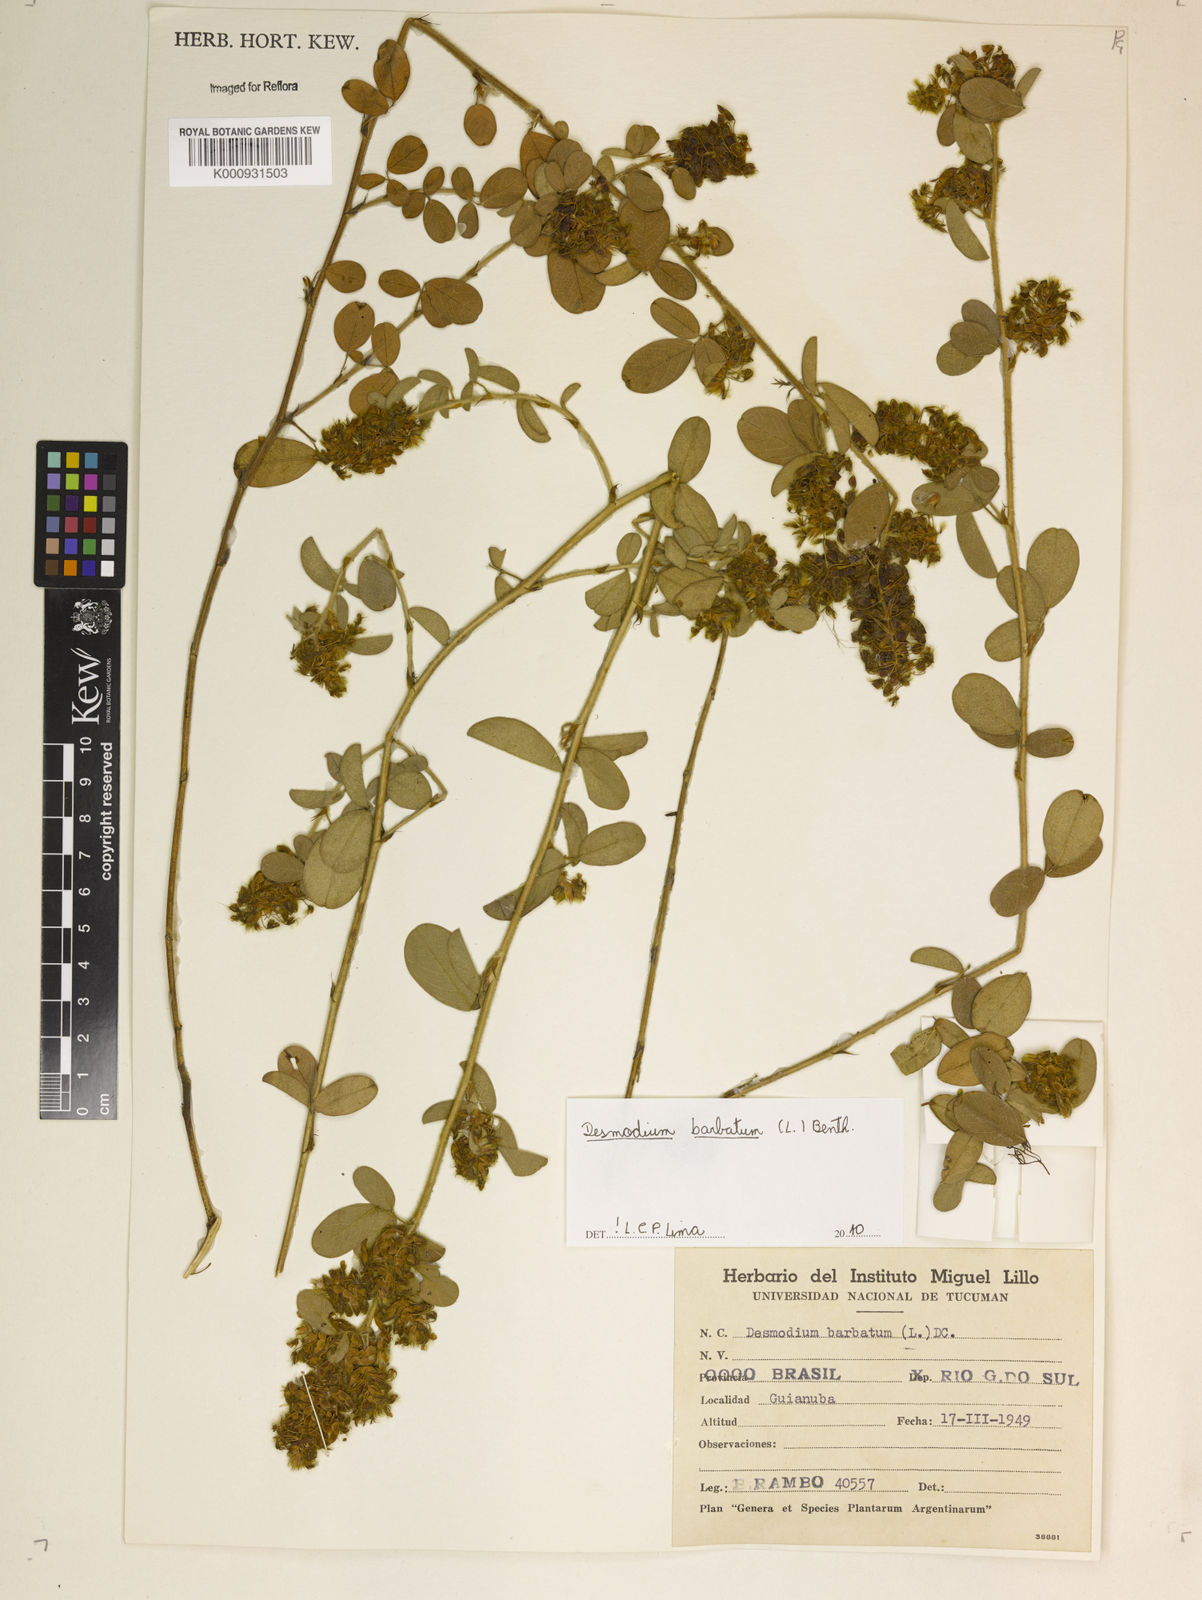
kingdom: Plantae
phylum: Tracheophyta
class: Magnoliopsida
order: Fabales
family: Fabaceae
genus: Grona
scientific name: Grona barbata
